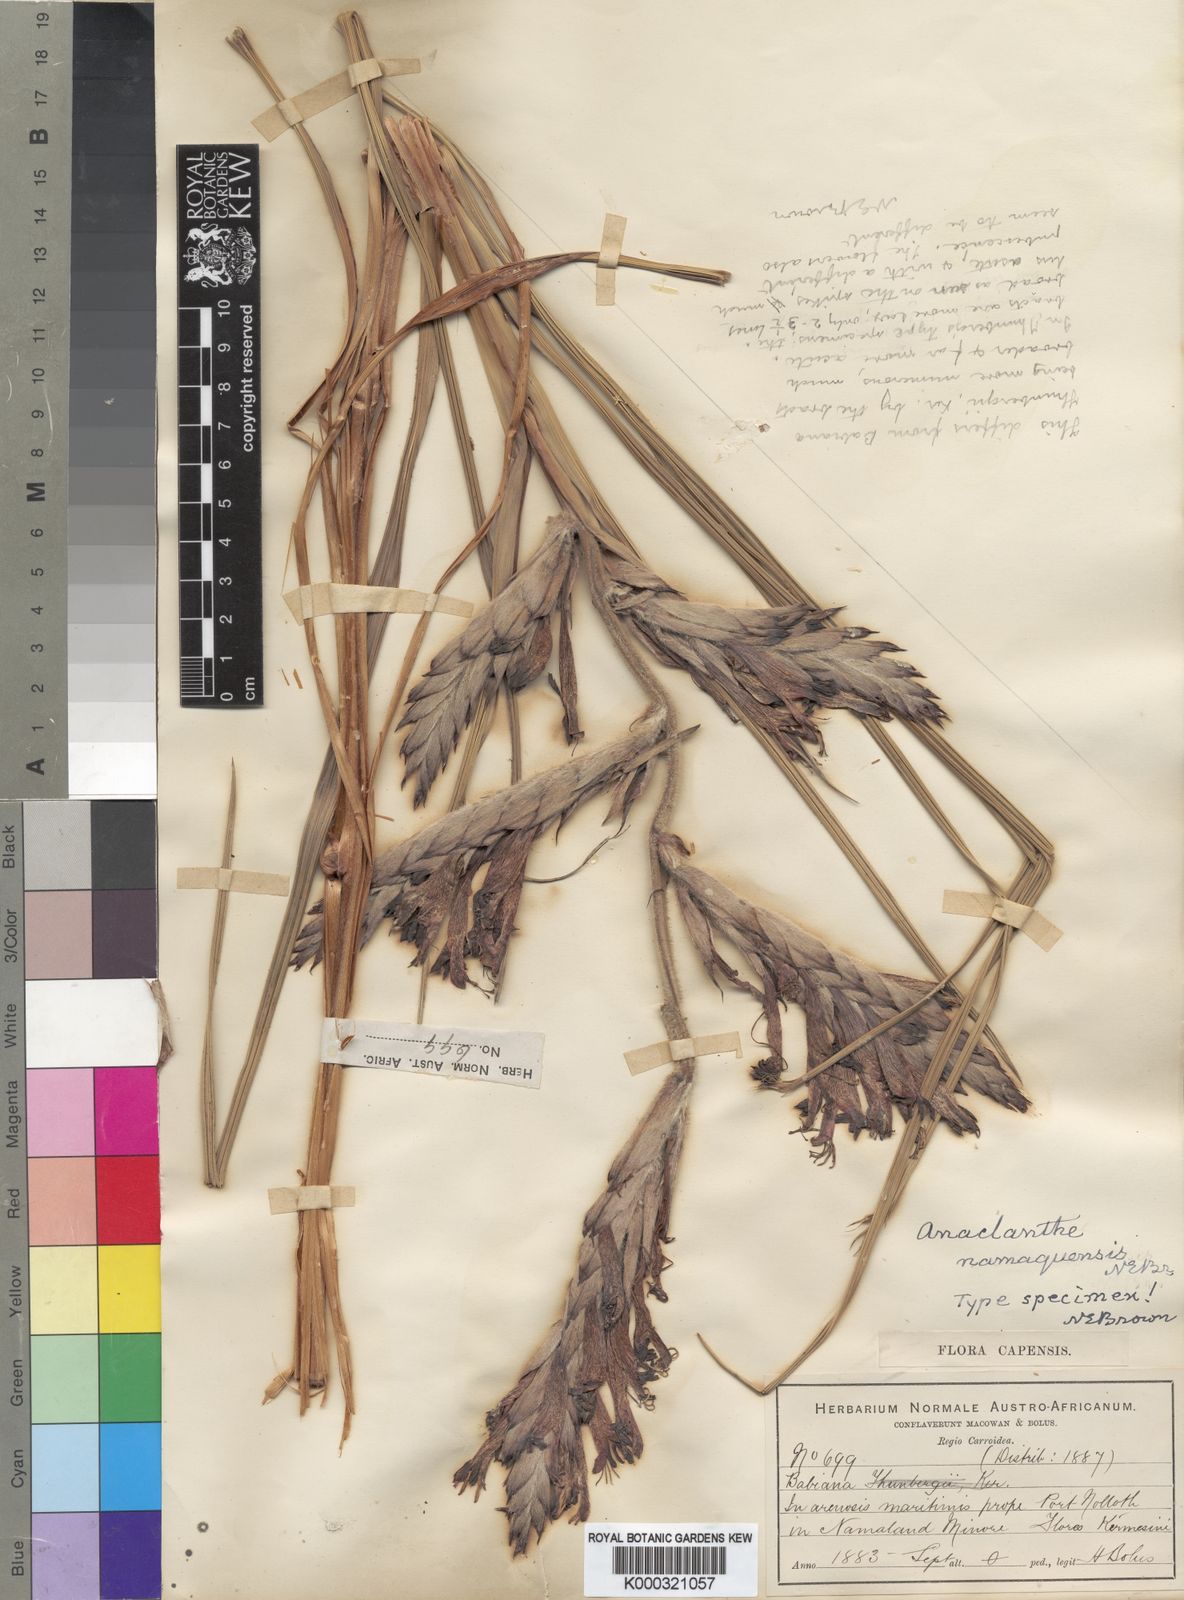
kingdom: Plantae
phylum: Tracheophyta
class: Liliopsida
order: Asparagales
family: Iridaceae
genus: Gladiolus
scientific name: Gladiolus equitans
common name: Large red kalkoentjie
